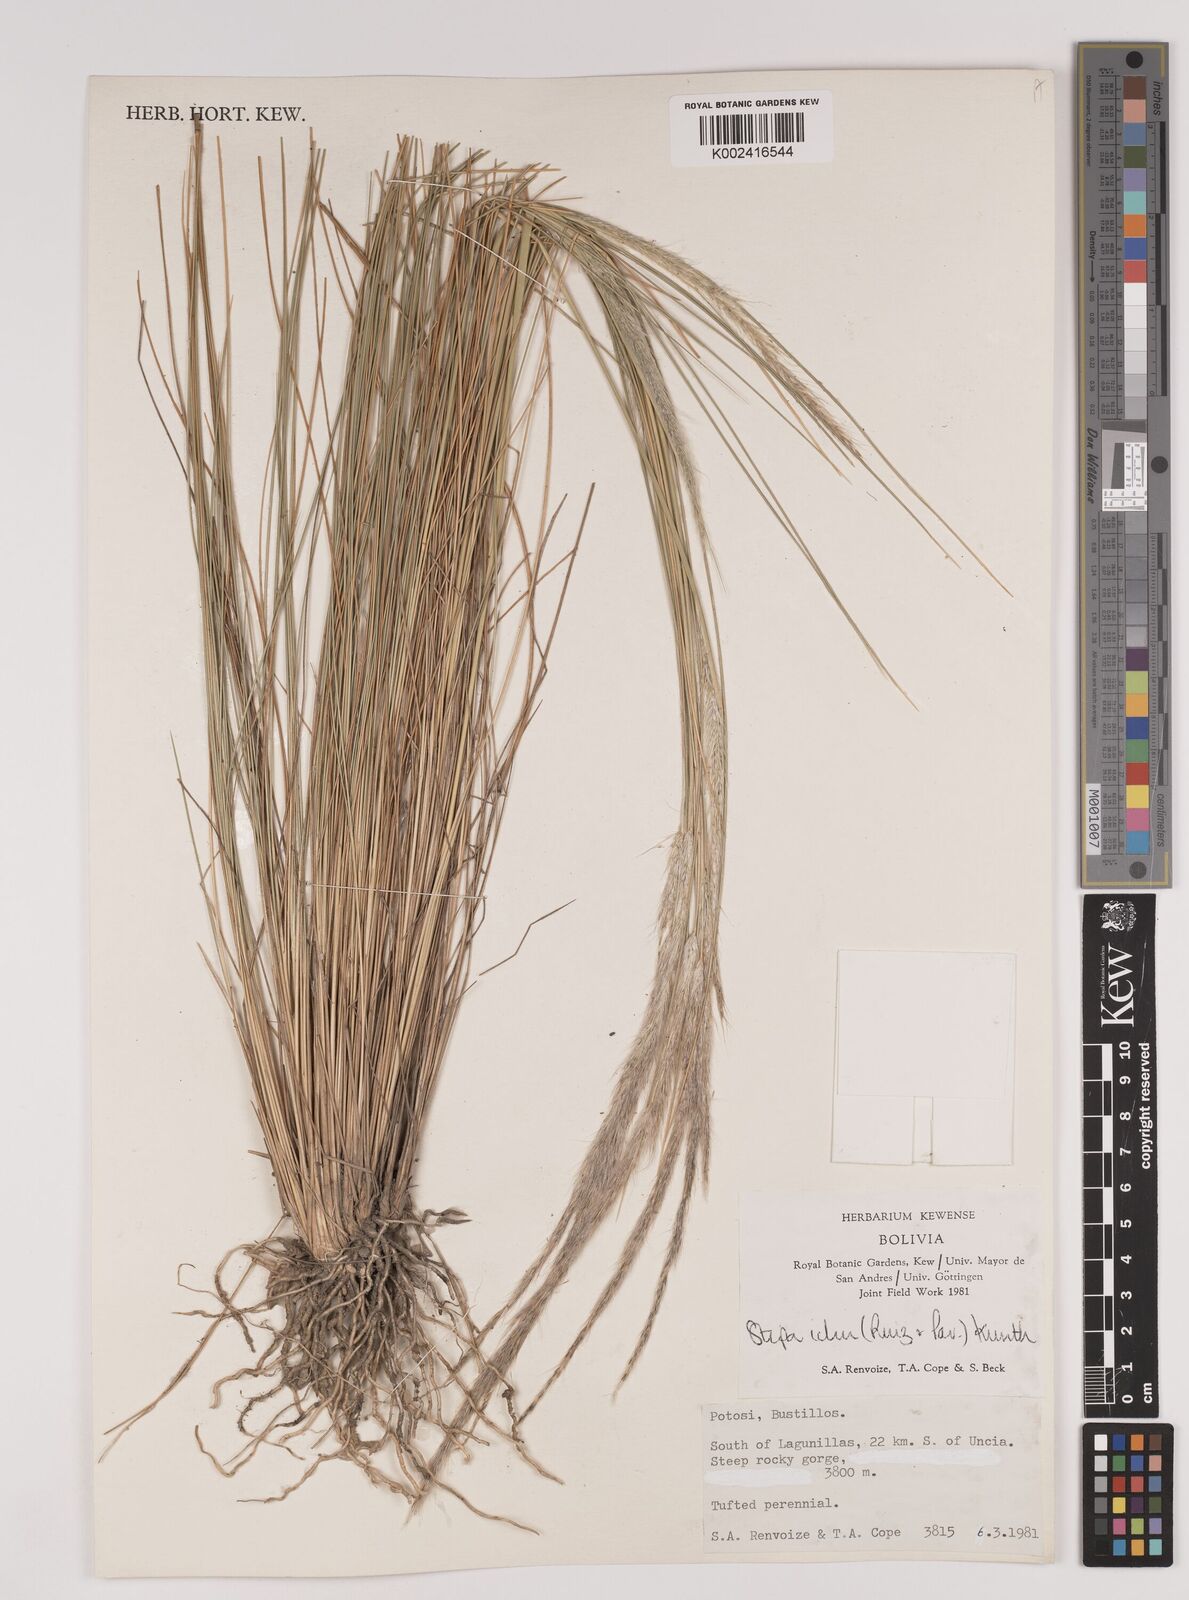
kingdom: Plantae
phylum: Tracheophyta
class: Liliopsida
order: Poales
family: Poaceae
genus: Jarava
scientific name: Jarava ichu
